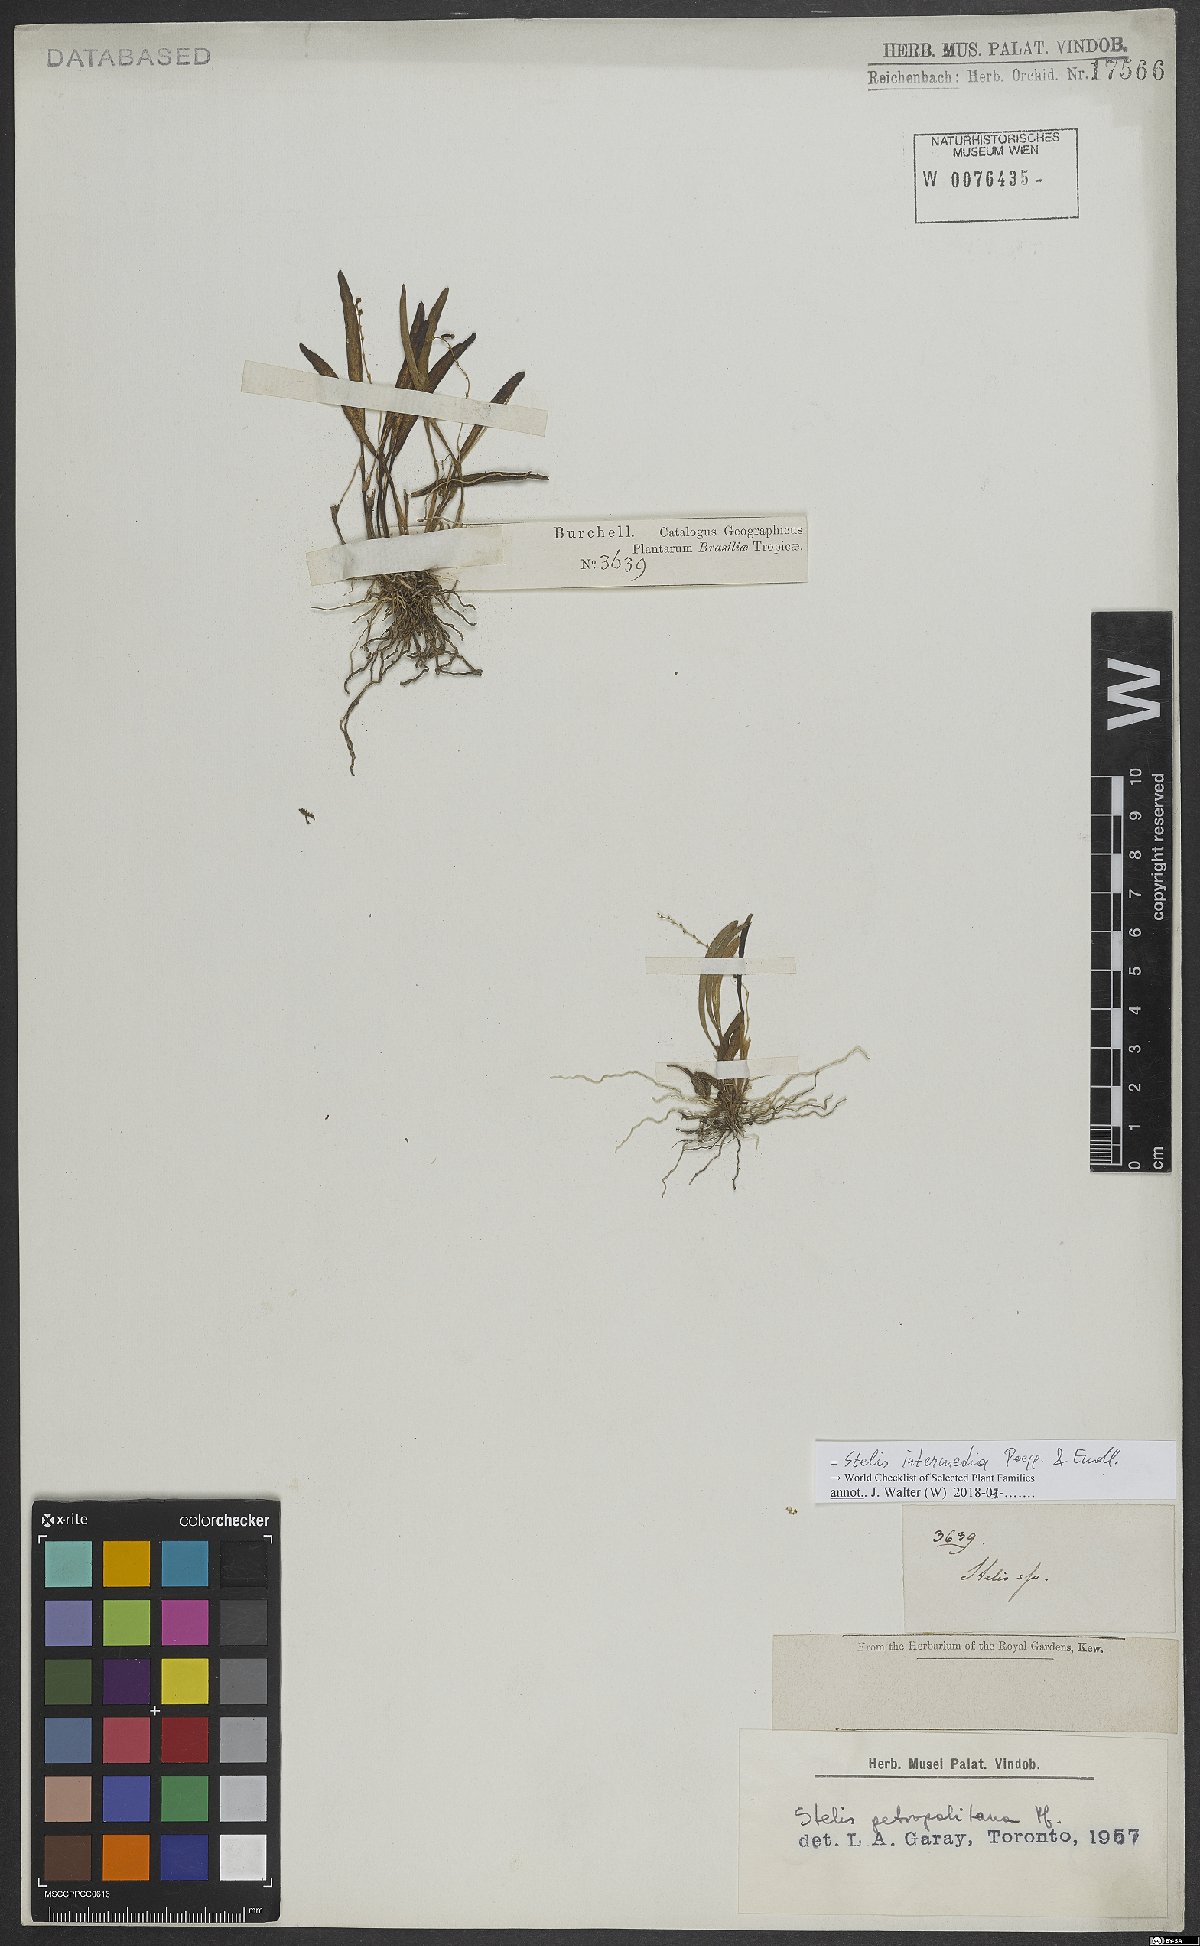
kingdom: Plantae
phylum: Tracheophyta
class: Liliopsida
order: Asparagales
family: Orchidaceae
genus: Stelis
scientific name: Stelis intermedia
